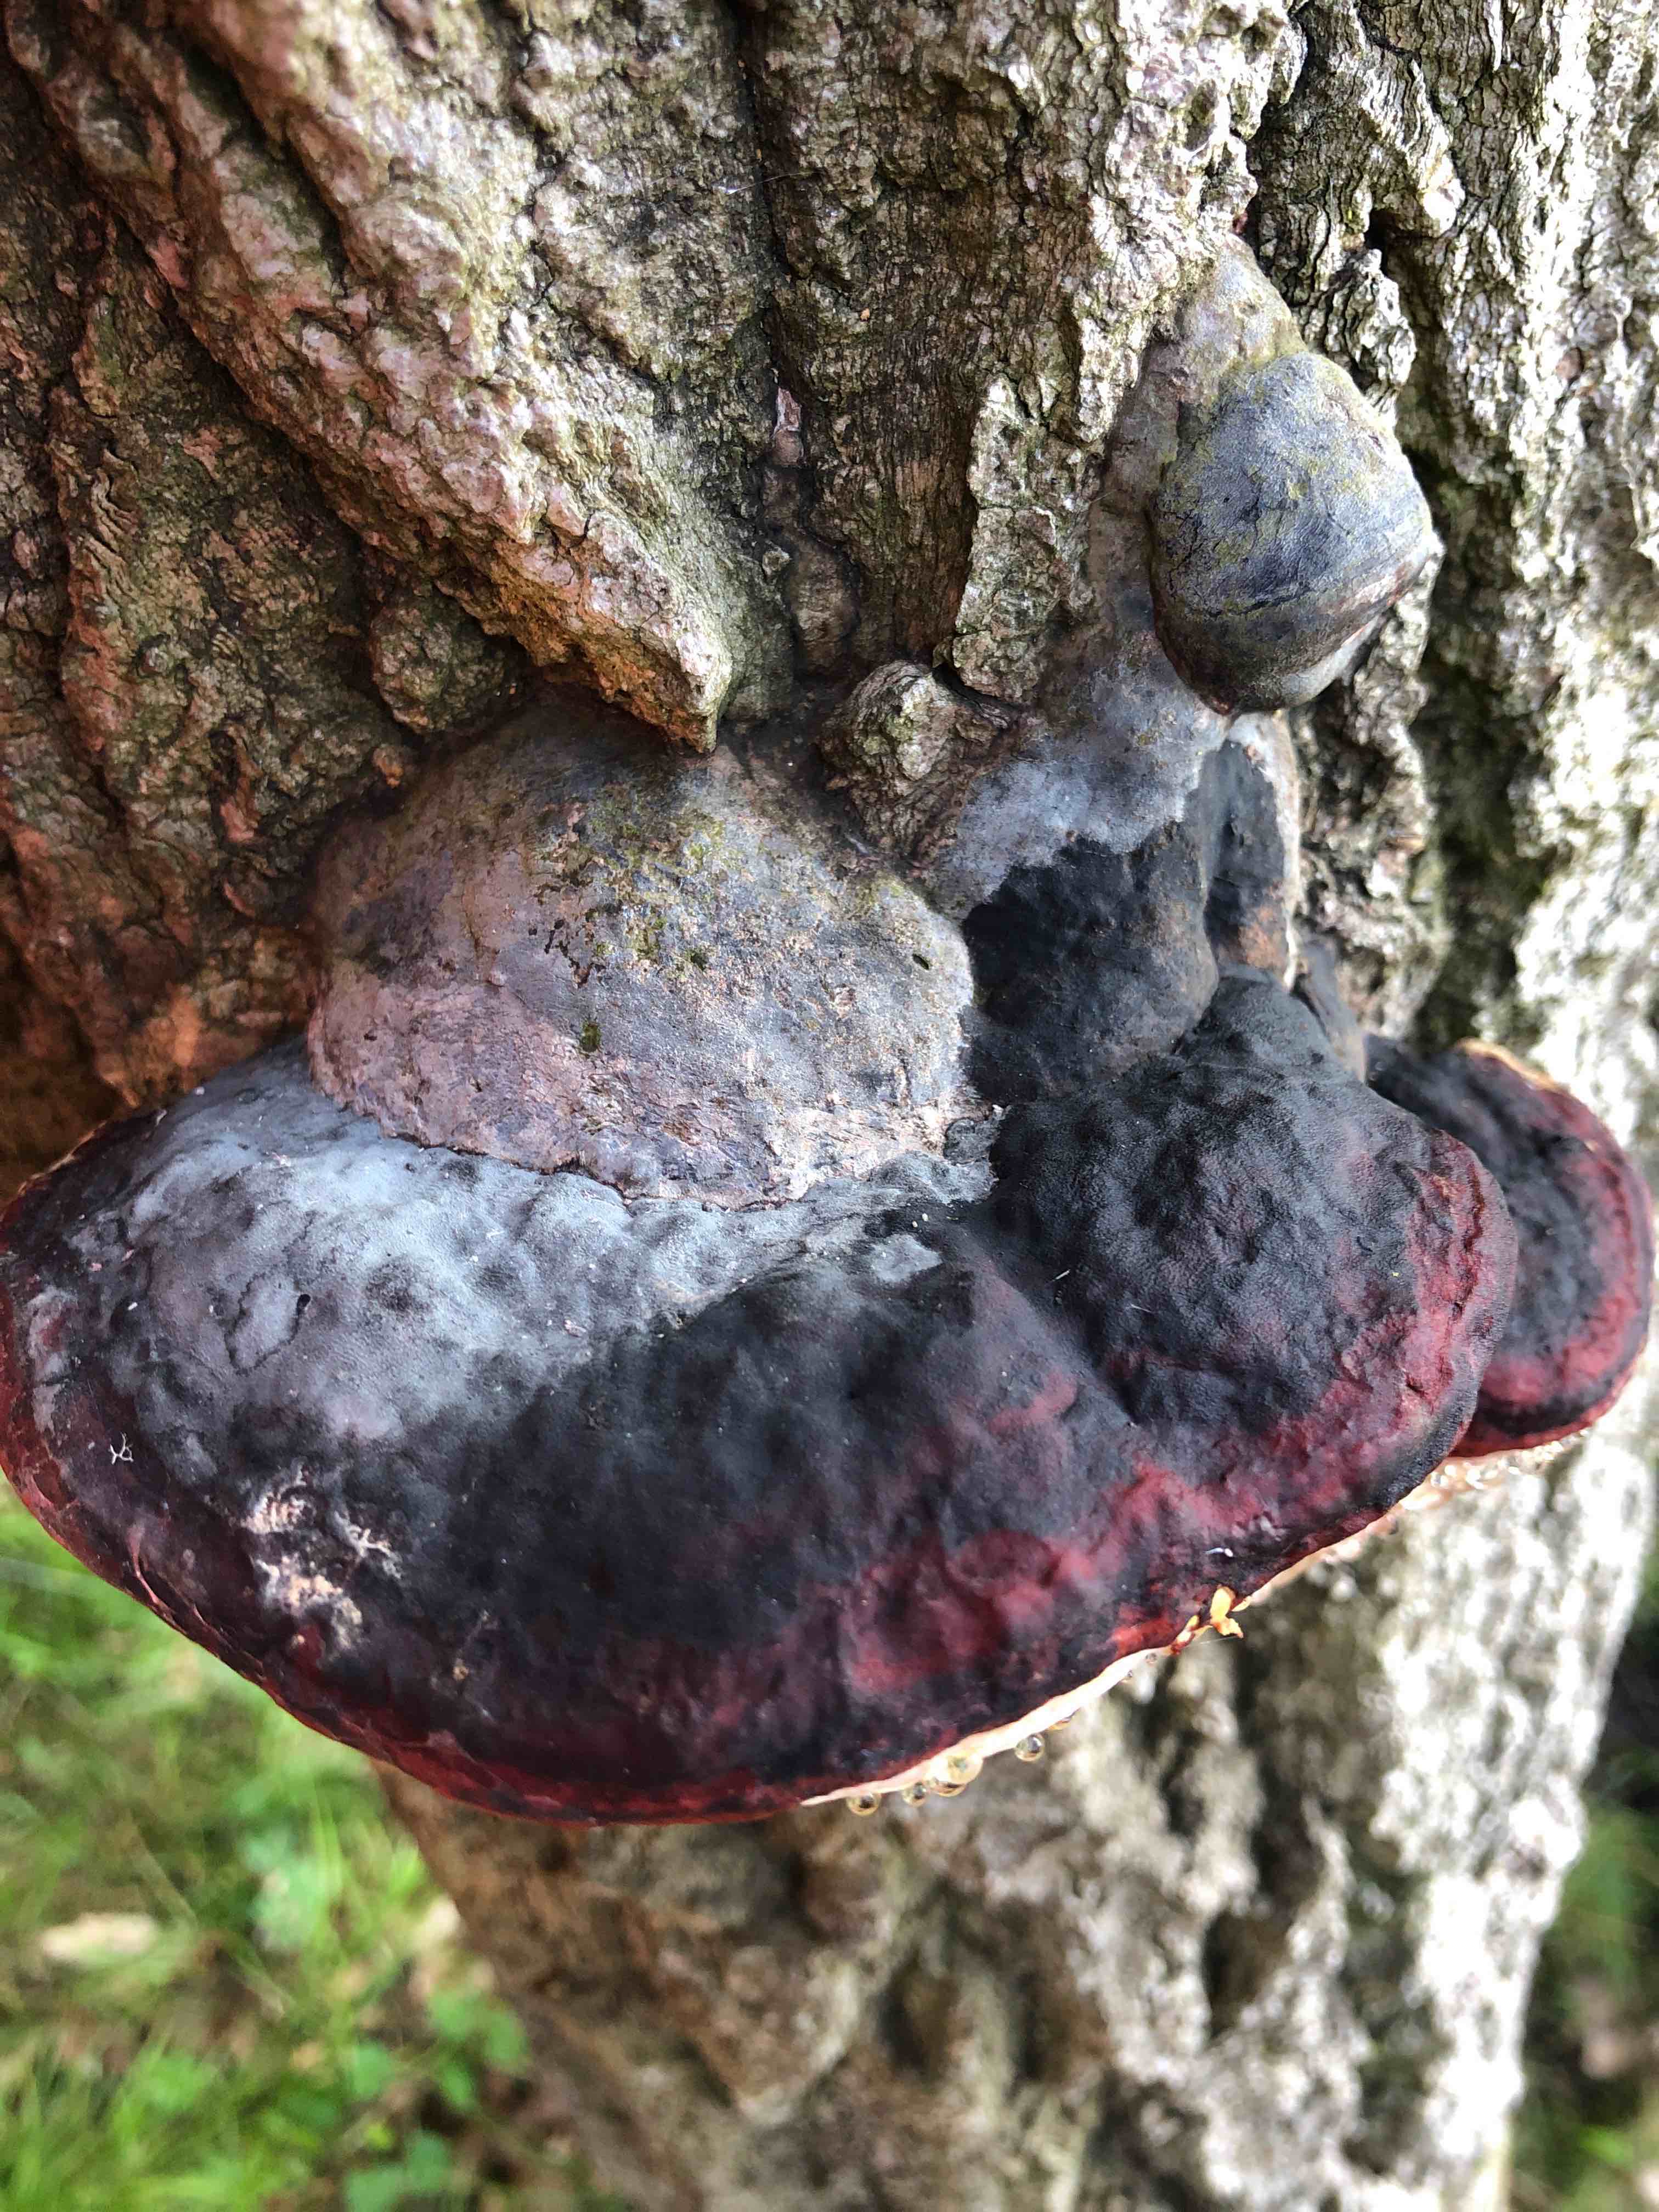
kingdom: Fungi
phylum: Basidiomycota
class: Agaricomycetes
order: Polyporales
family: Fomitopsidaceae
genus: Fomitopsis
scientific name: Fomitopsis pinicola
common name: randbæltet hovporesvamp
